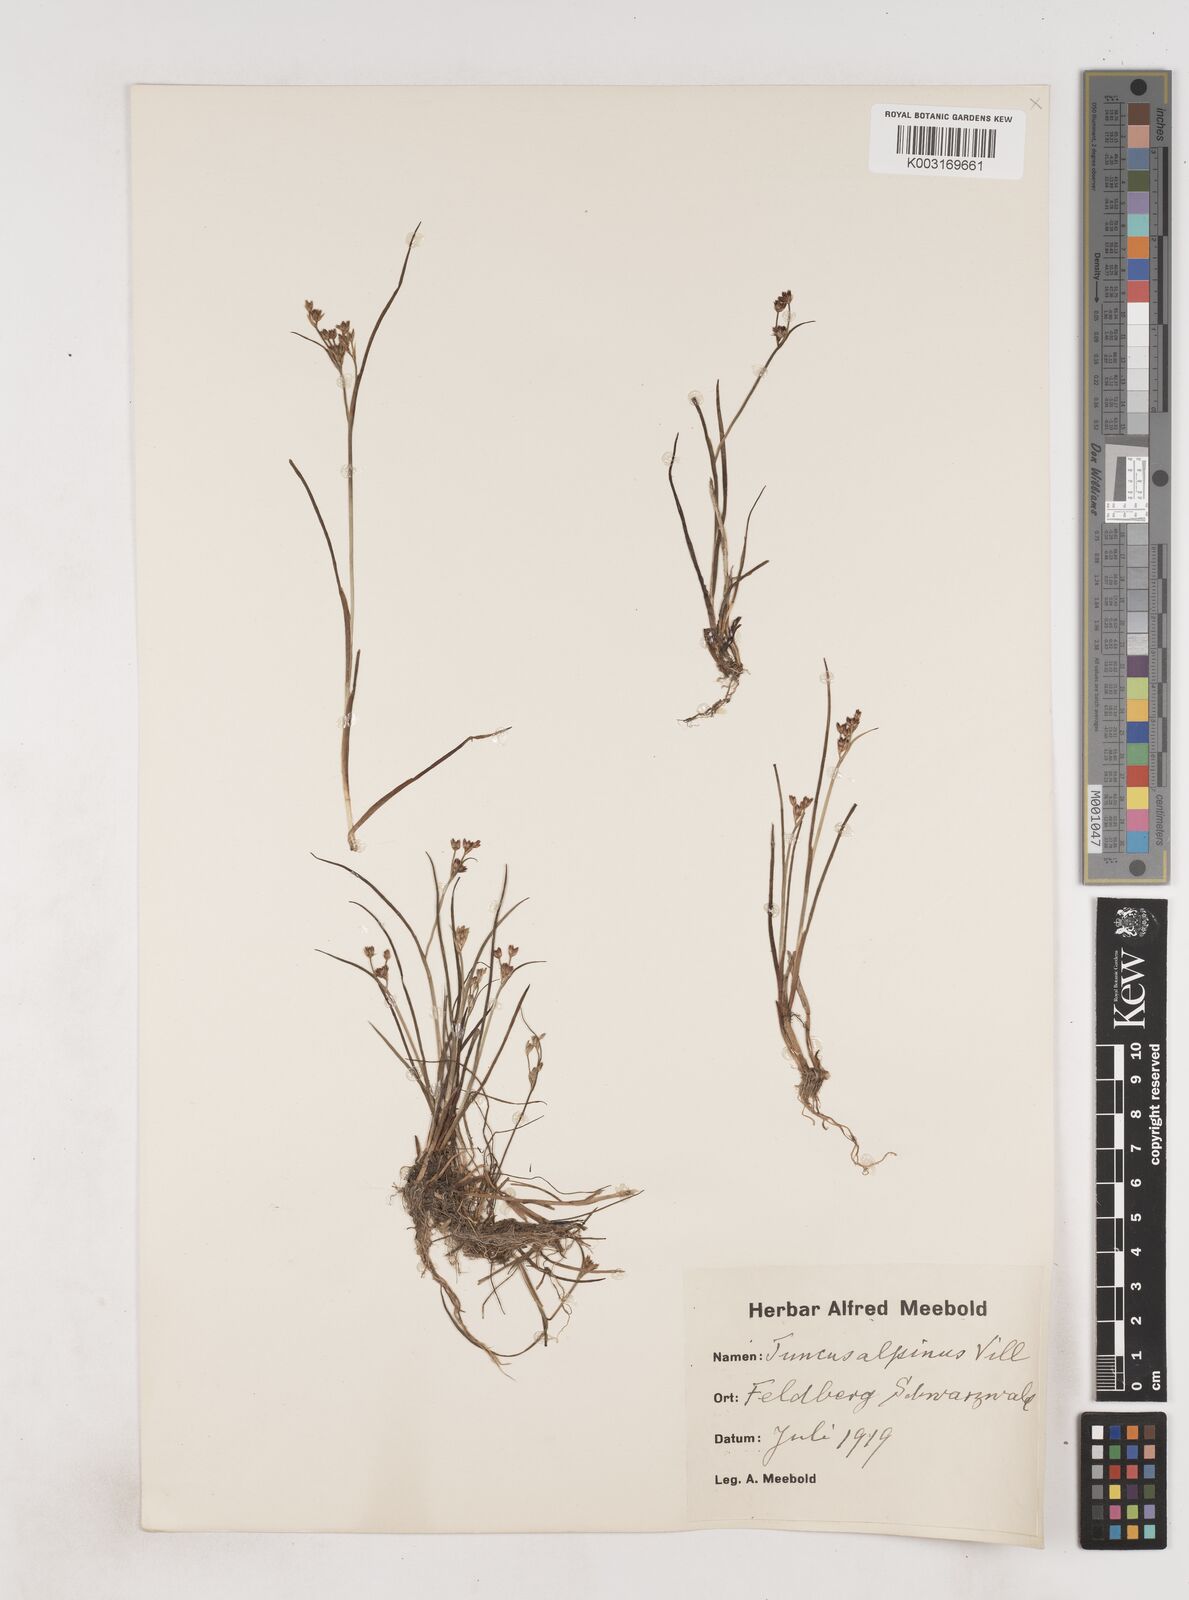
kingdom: Plantae
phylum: Tracheophyta
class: Liliopsida
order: Poales
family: Juncaceae
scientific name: Juncaceae
